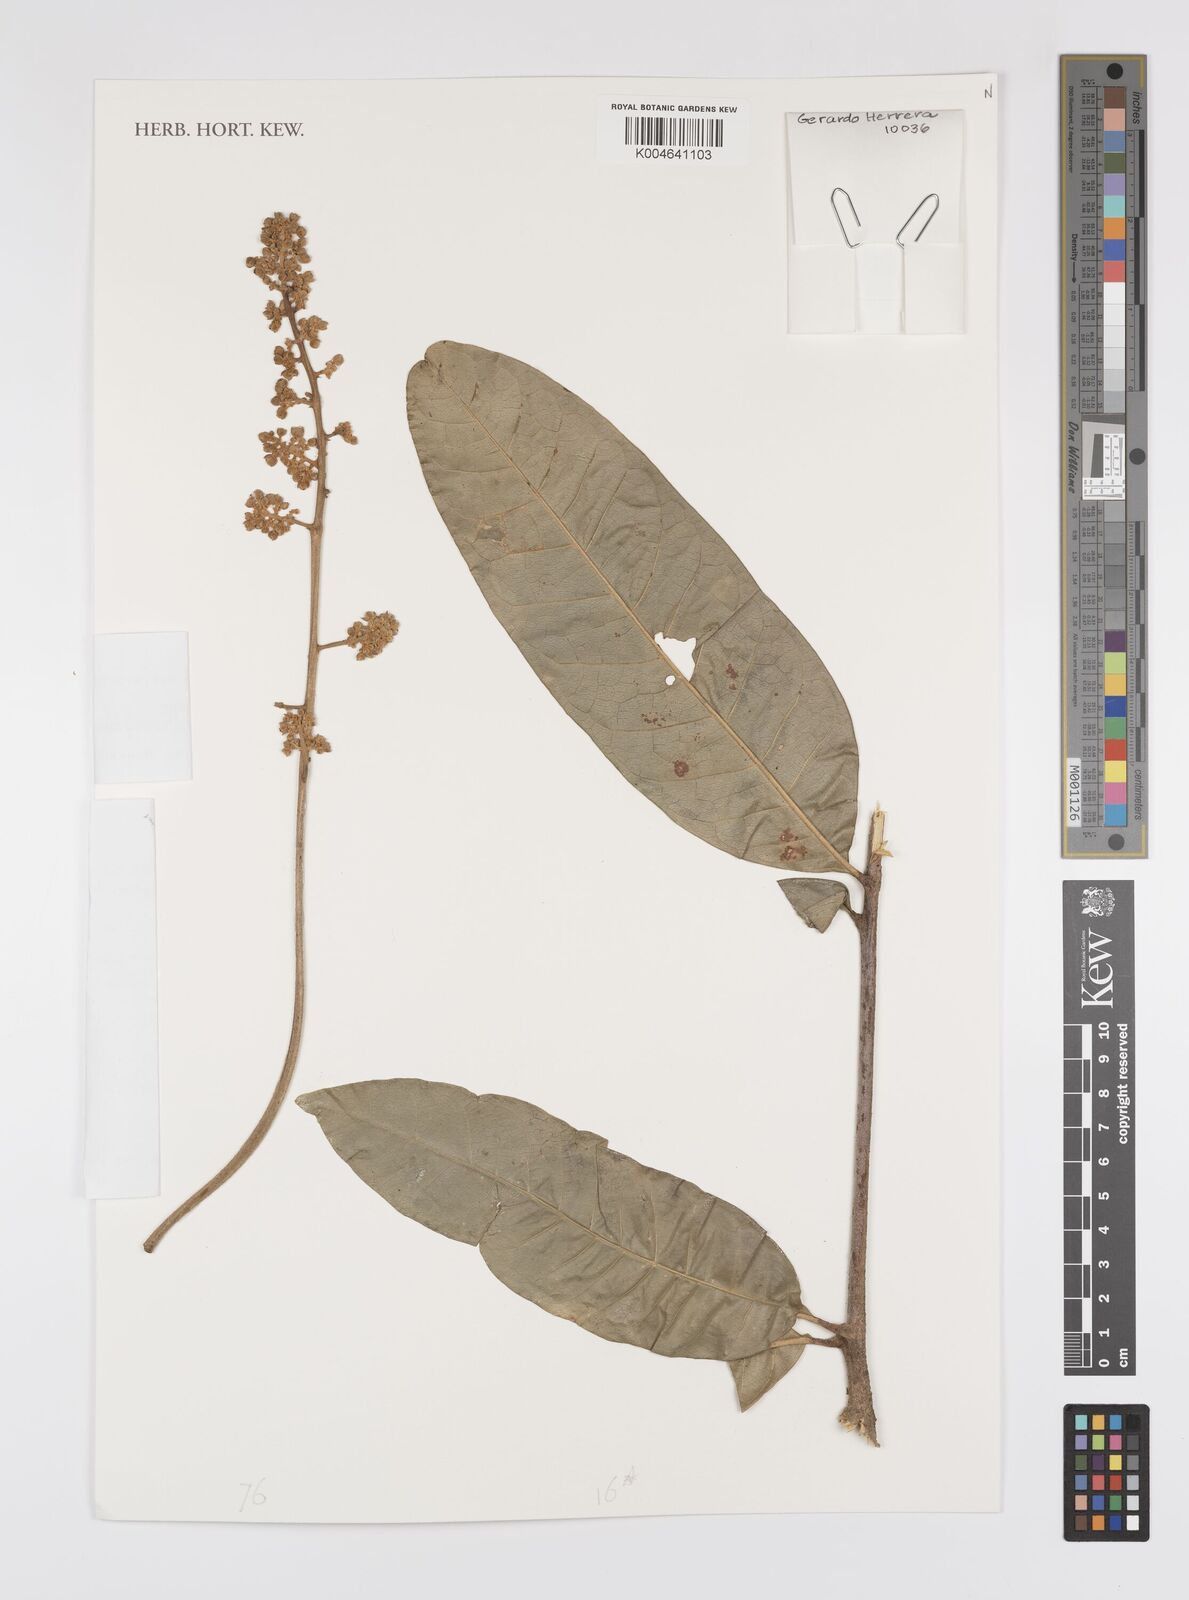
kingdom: Plantae
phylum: Tracheophyta
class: Magnoliopsida
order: Sapindales
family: Sapindaceae
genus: Pseudima
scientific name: Pseudima frutescens
